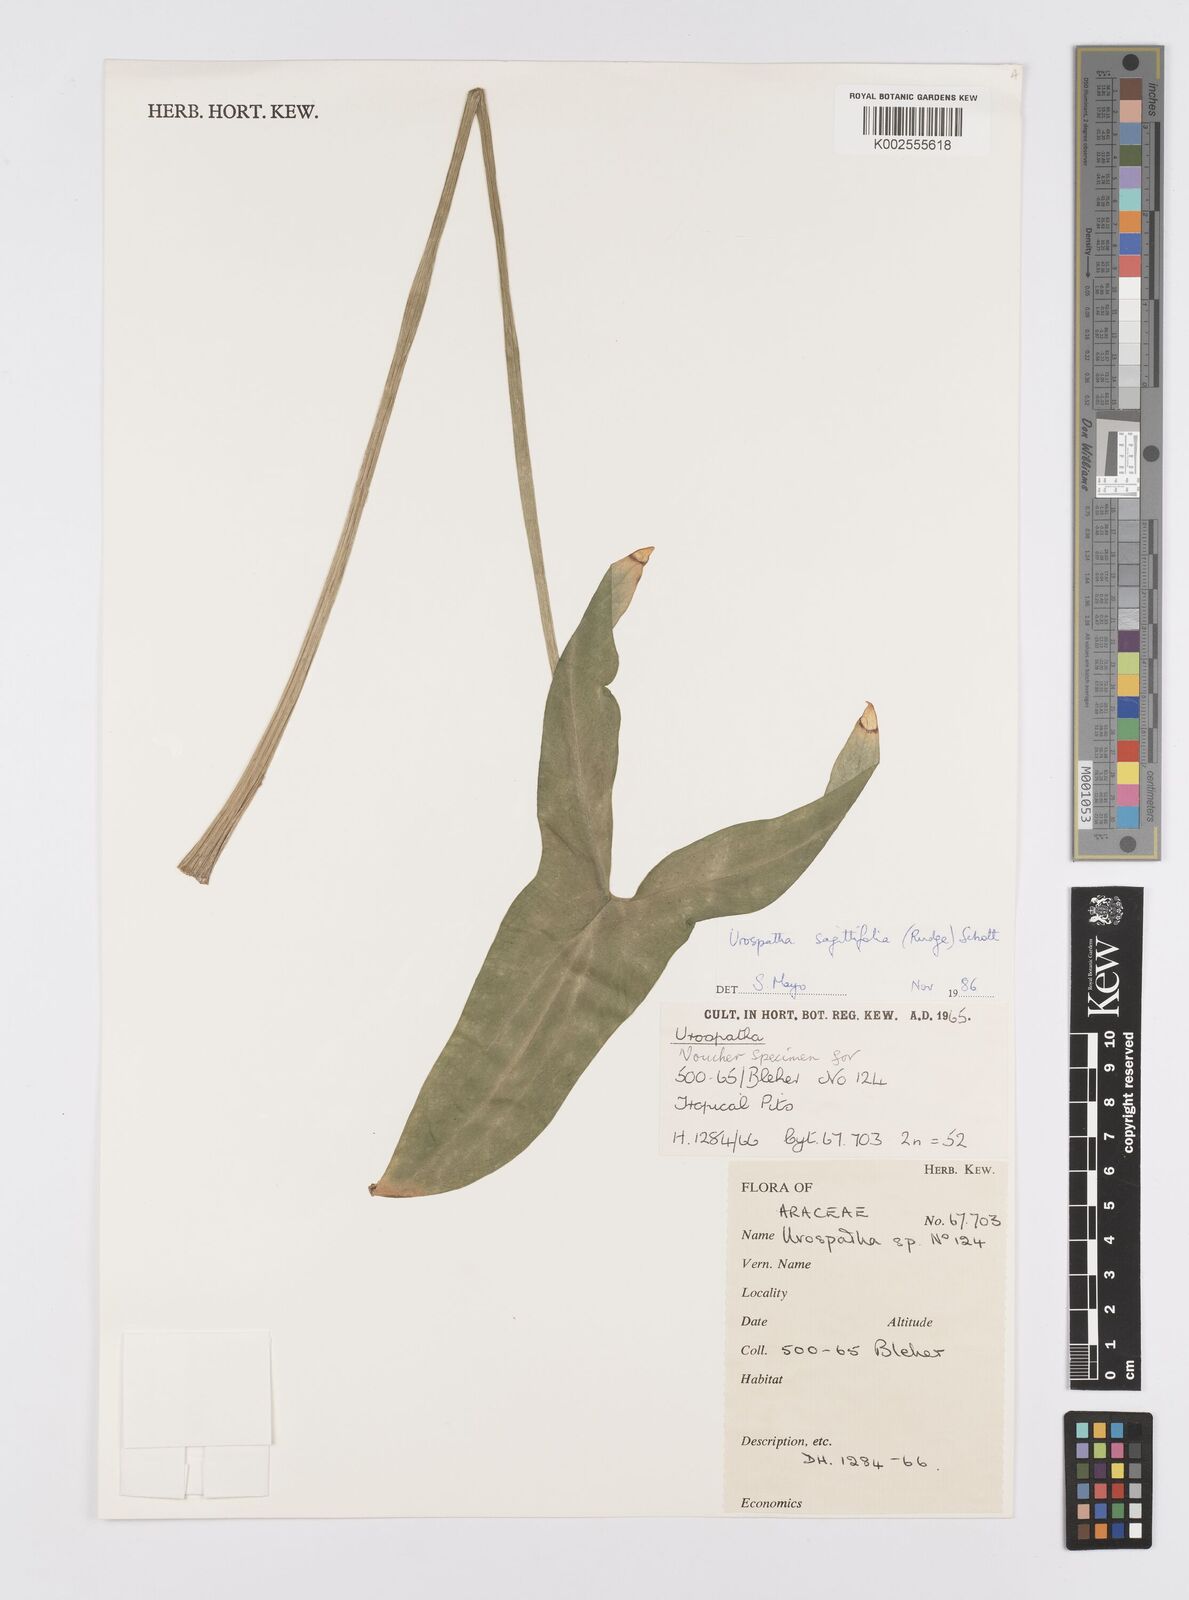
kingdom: Plantae
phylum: Tracheophyta
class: Liliopsida
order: Alismatales
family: Araceae
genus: Urospatha
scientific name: Urospatha sagittifolia
